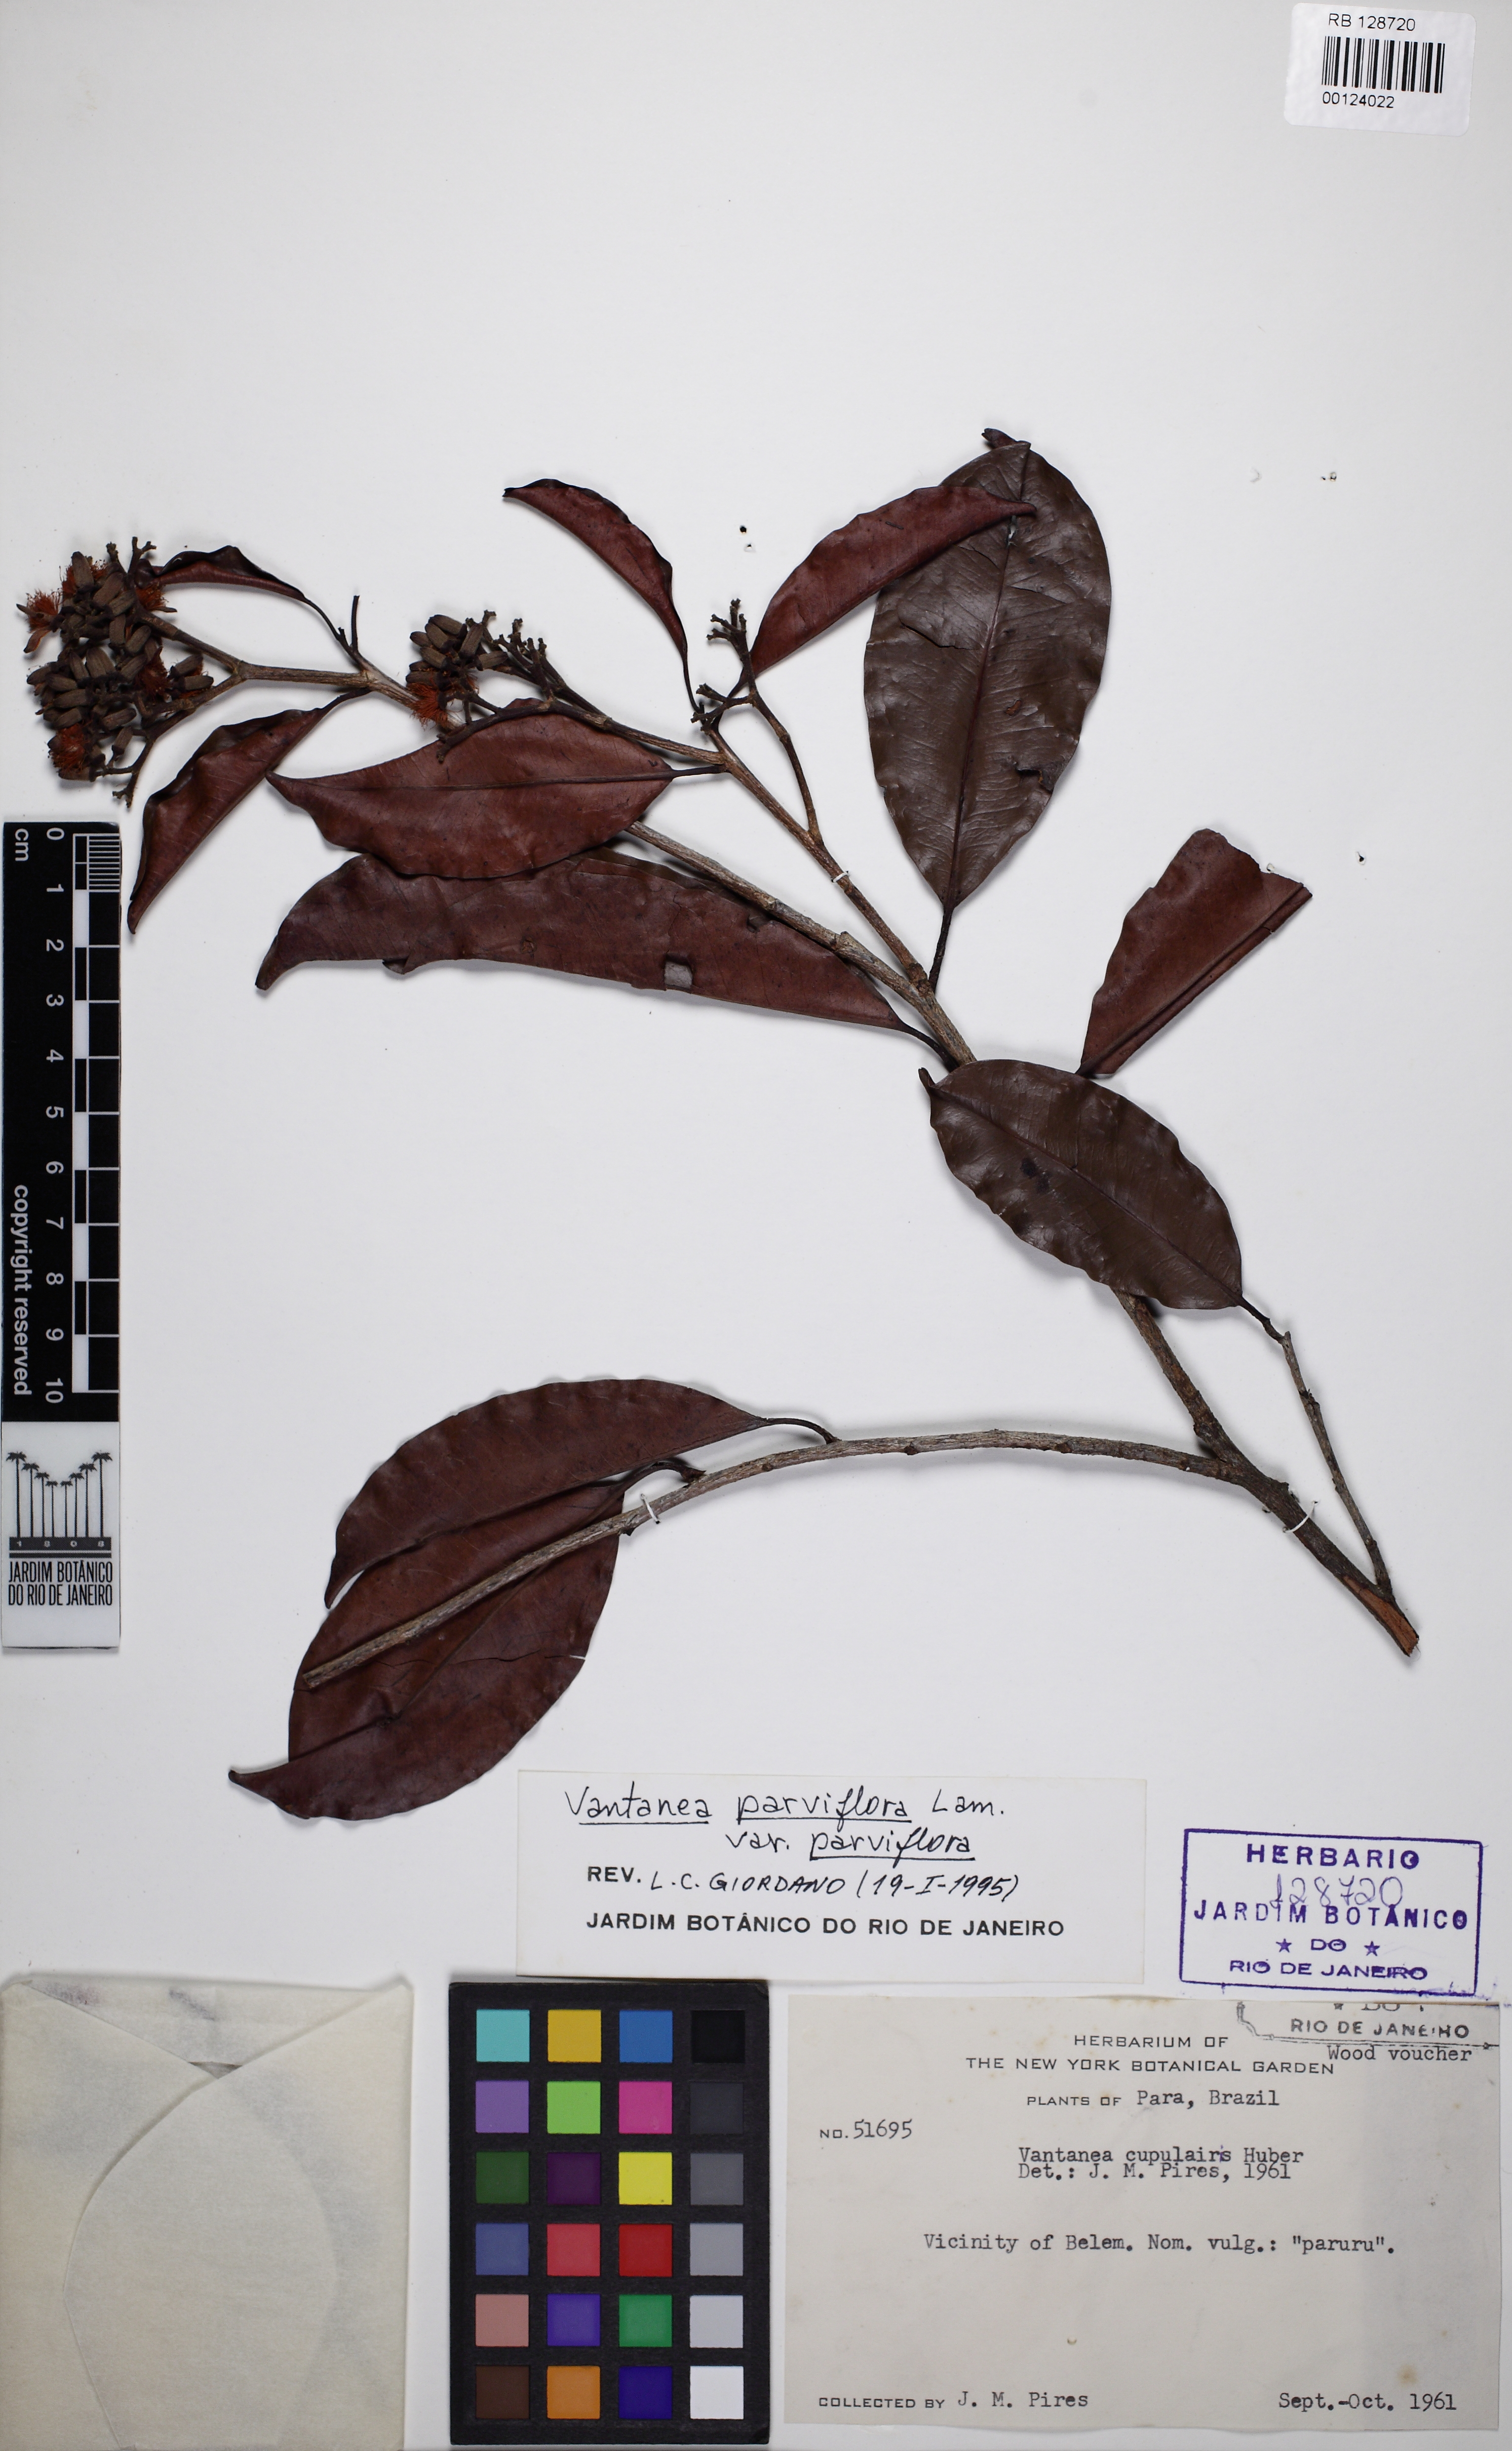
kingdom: Plantae
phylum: Tracheophyta
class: Magnoliopsida
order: Malpighiales
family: Humiriaceae
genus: Vantanea
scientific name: Vantanea parviflora
